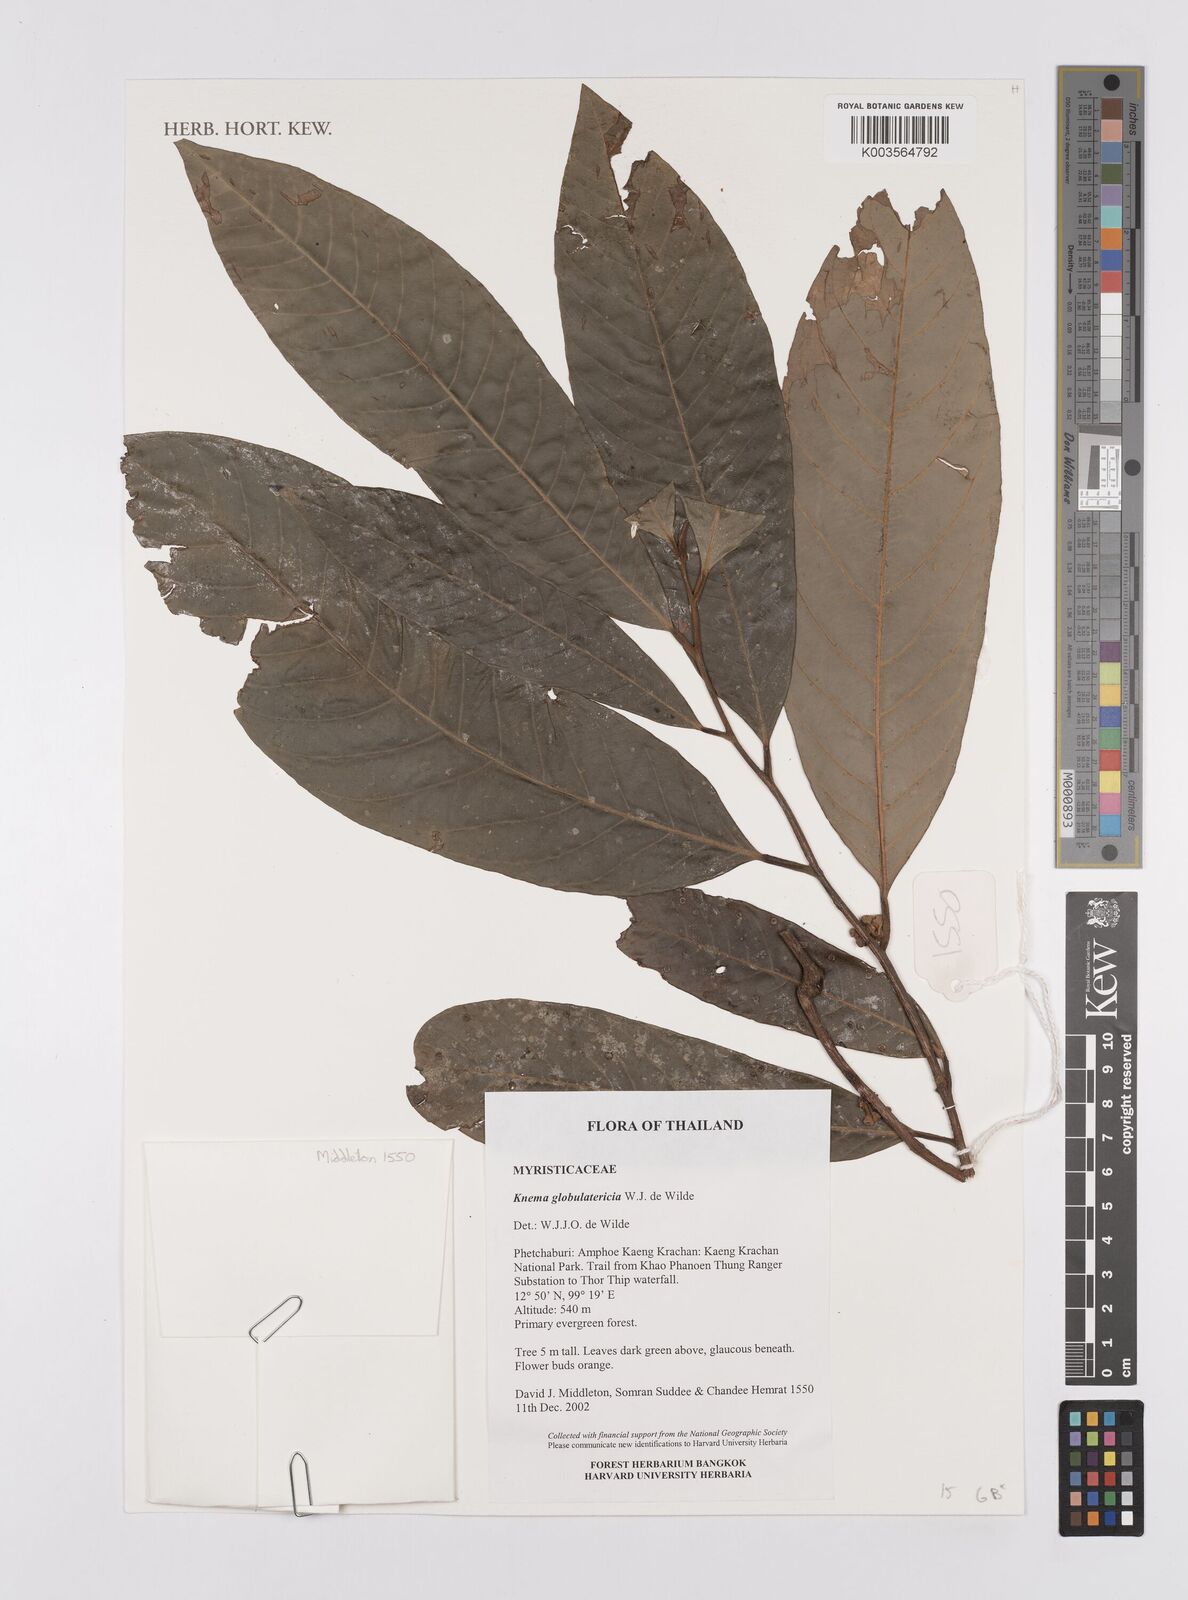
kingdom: Plantae
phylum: Tracheophyta
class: Magnoliopsida
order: Magnoliales
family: Myristicaceae
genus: Knema
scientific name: Knema globulatericia
